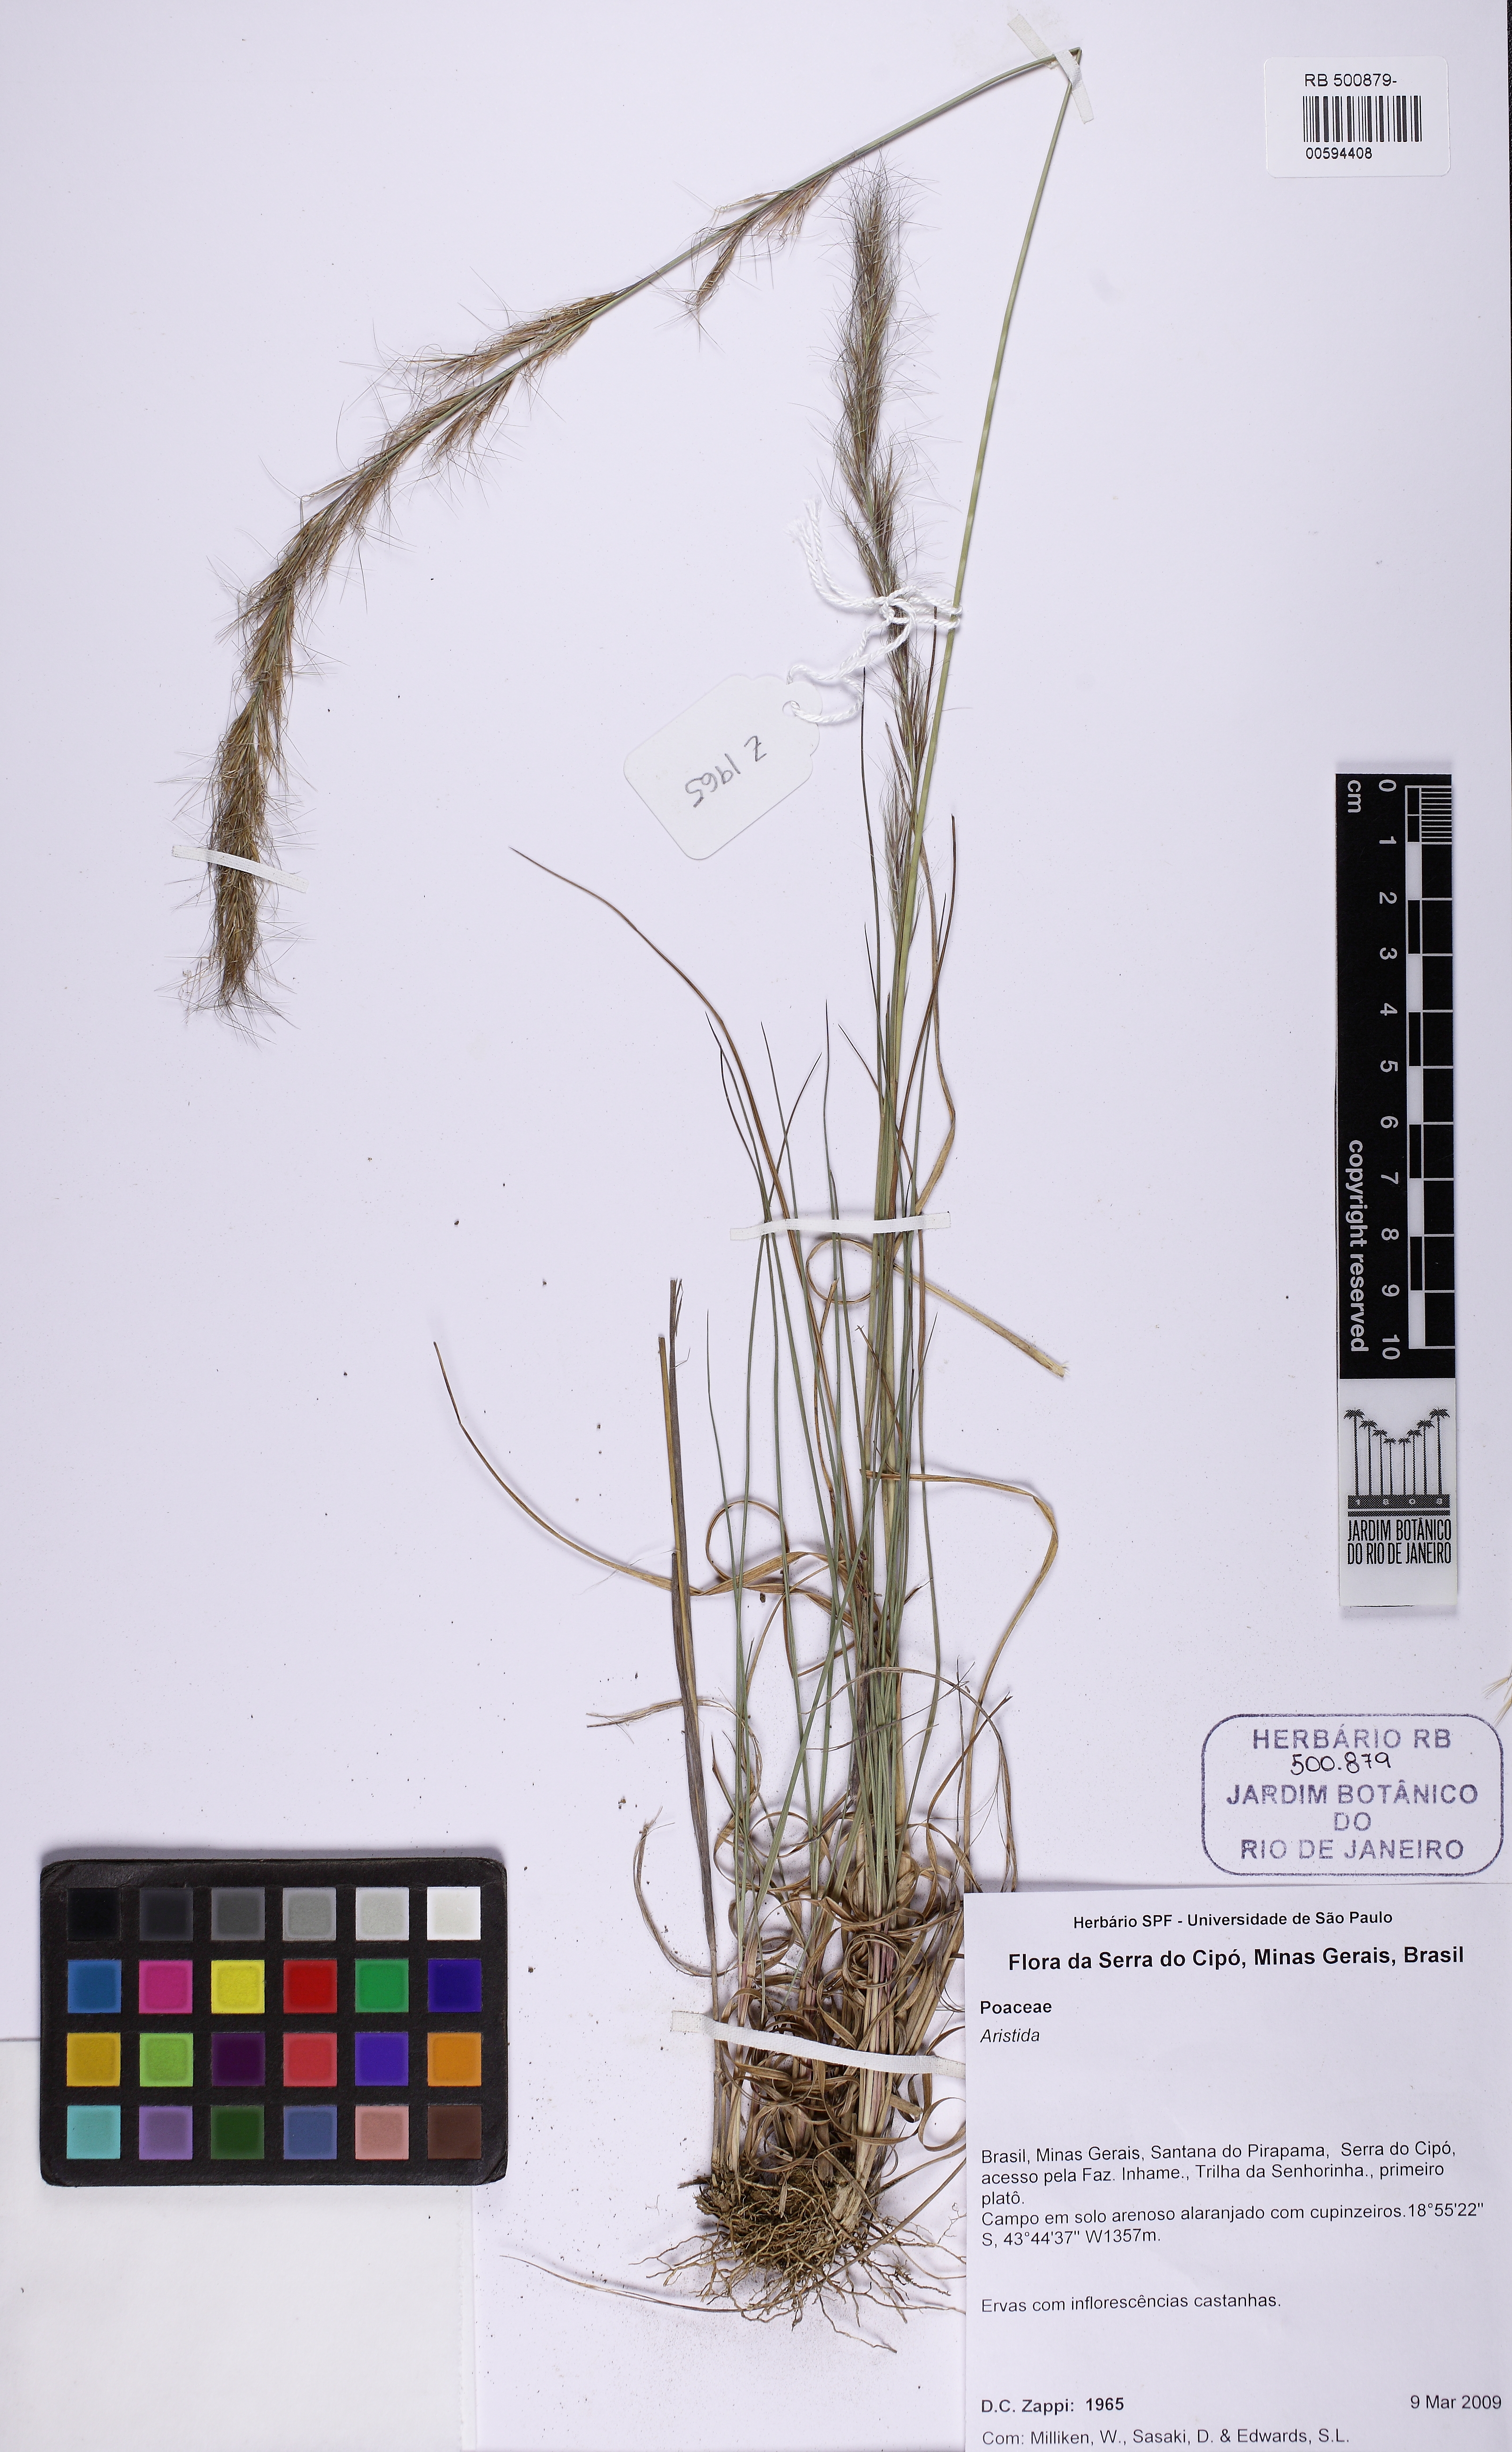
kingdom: Plantae
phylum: Tracheophyta
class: Liliopsida
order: Poales
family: Poaceae
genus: Aristida
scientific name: Aristida
